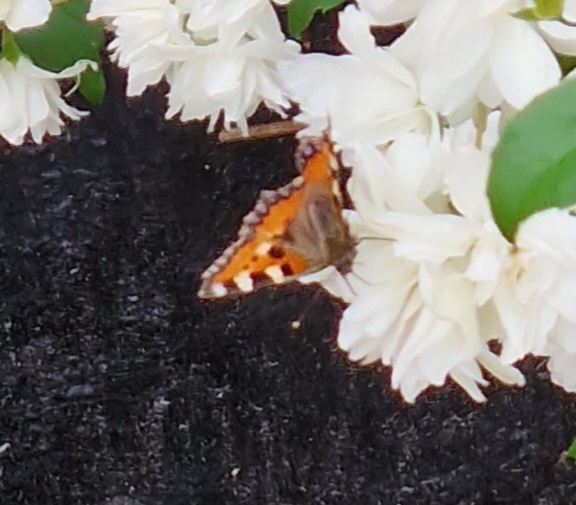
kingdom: Animalia
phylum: Arthropoda
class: Insecta
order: Lepidoptera
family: Nymphalidae
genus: Aglais
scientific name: Aglais urticae
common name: Nældens takvinge
